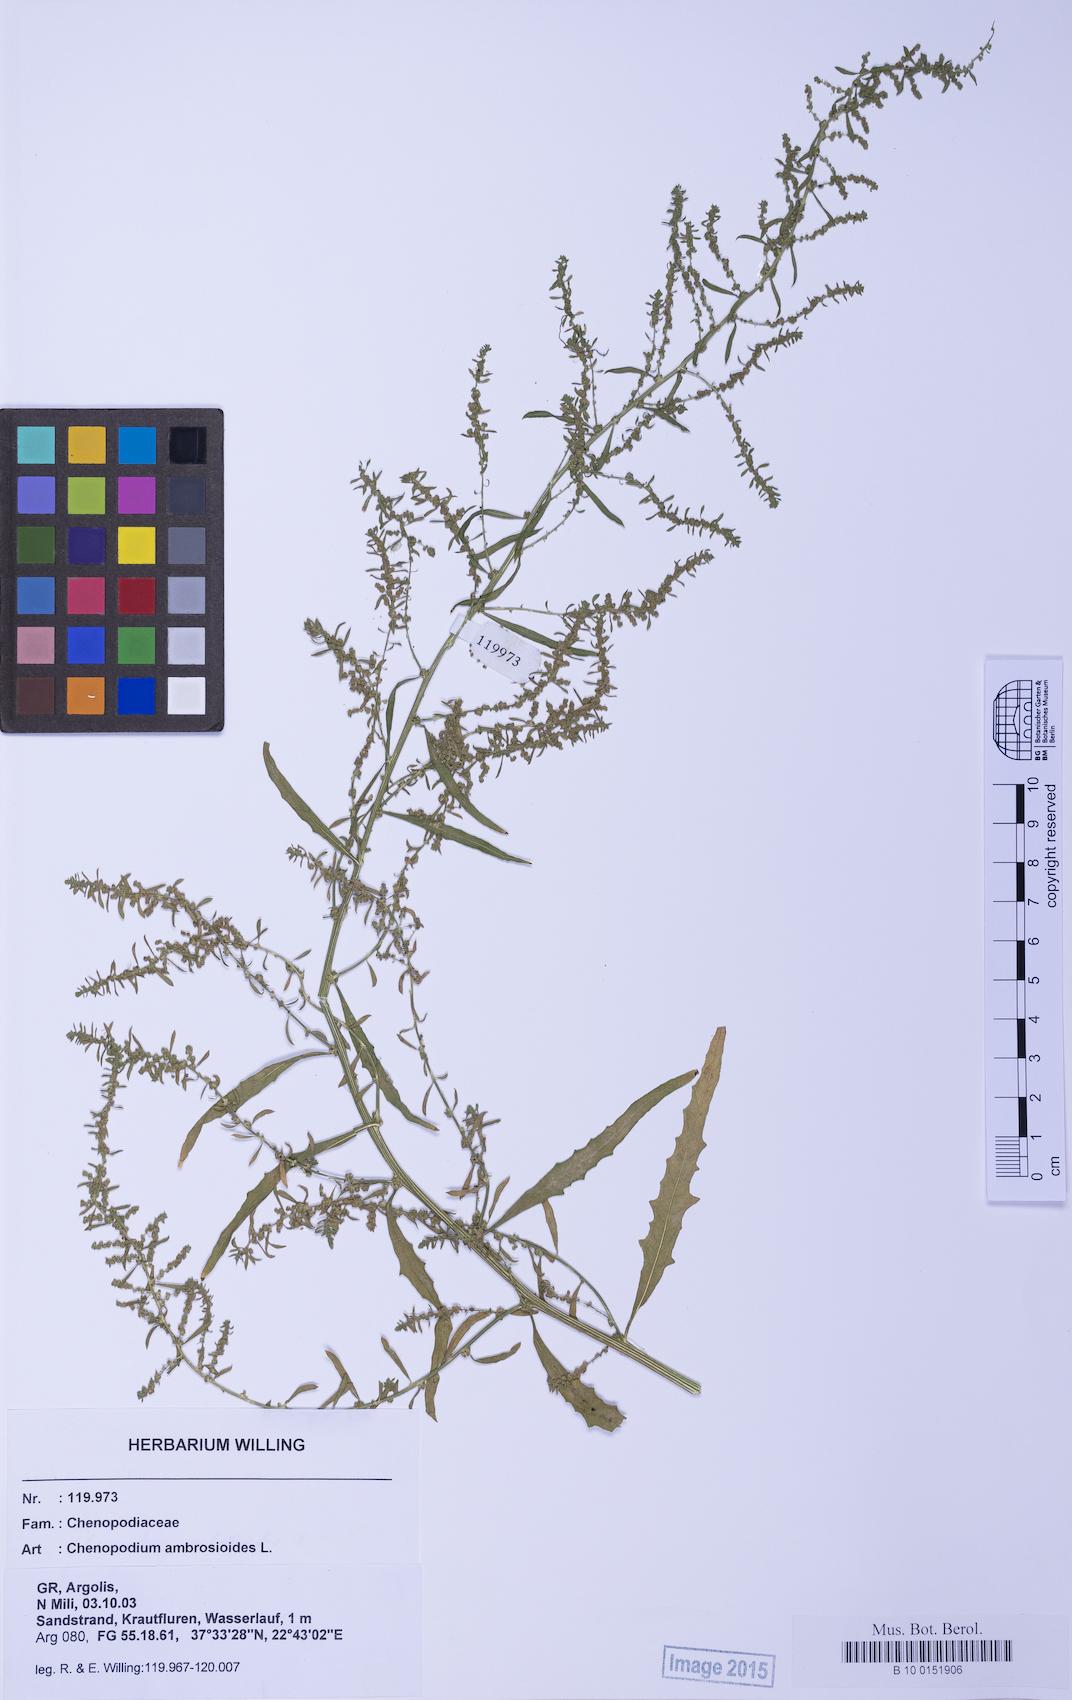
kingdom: Plantae
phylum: Tracheophyta
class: Magnoliopsida
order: Caryophyllales
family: Amaranthaceae
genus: Dysphania
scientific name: Dysphania ambrosioides
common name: Wormseed
